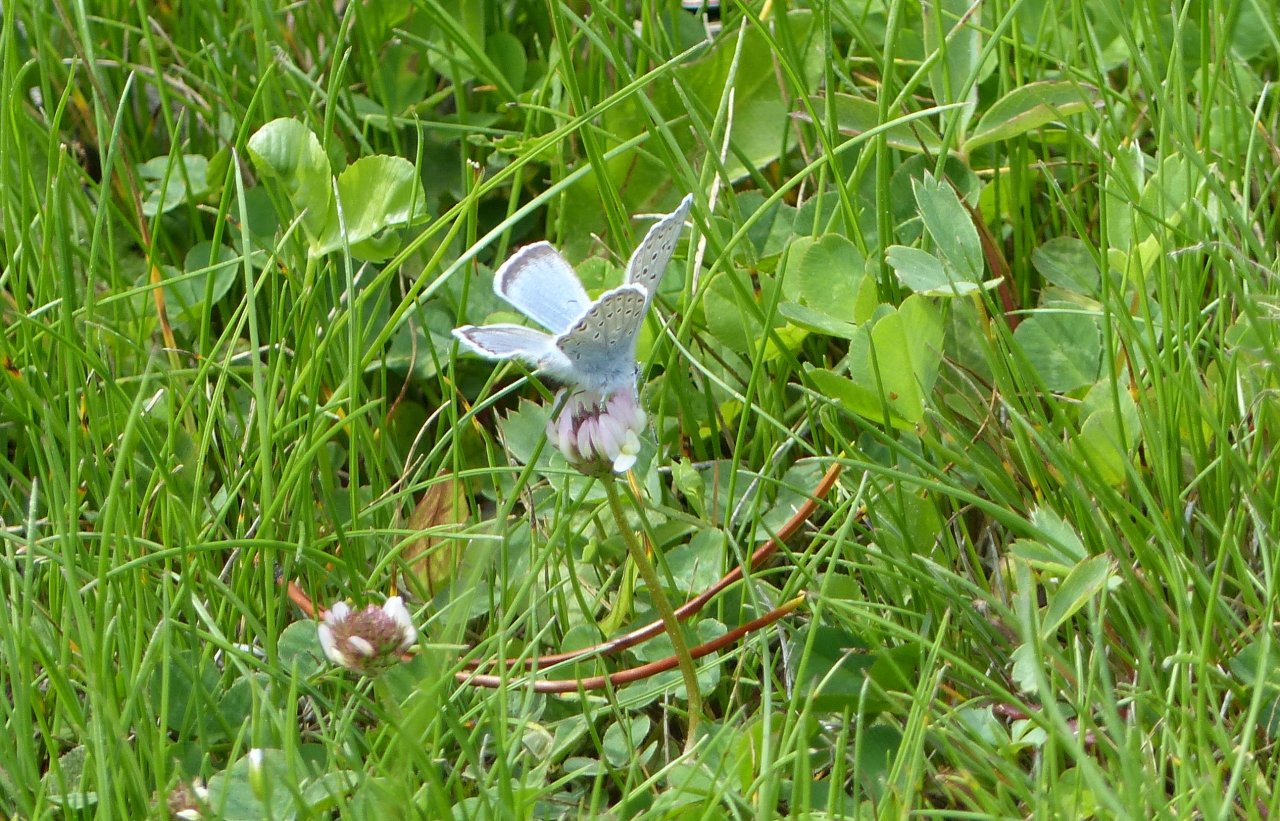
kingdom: Animalia
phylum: Arthropoda
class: Insecta
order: Lepidoptera
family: Lycaenidae
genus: Plebejus
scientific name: Plebejus saepiolus
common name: Greenish Blue
